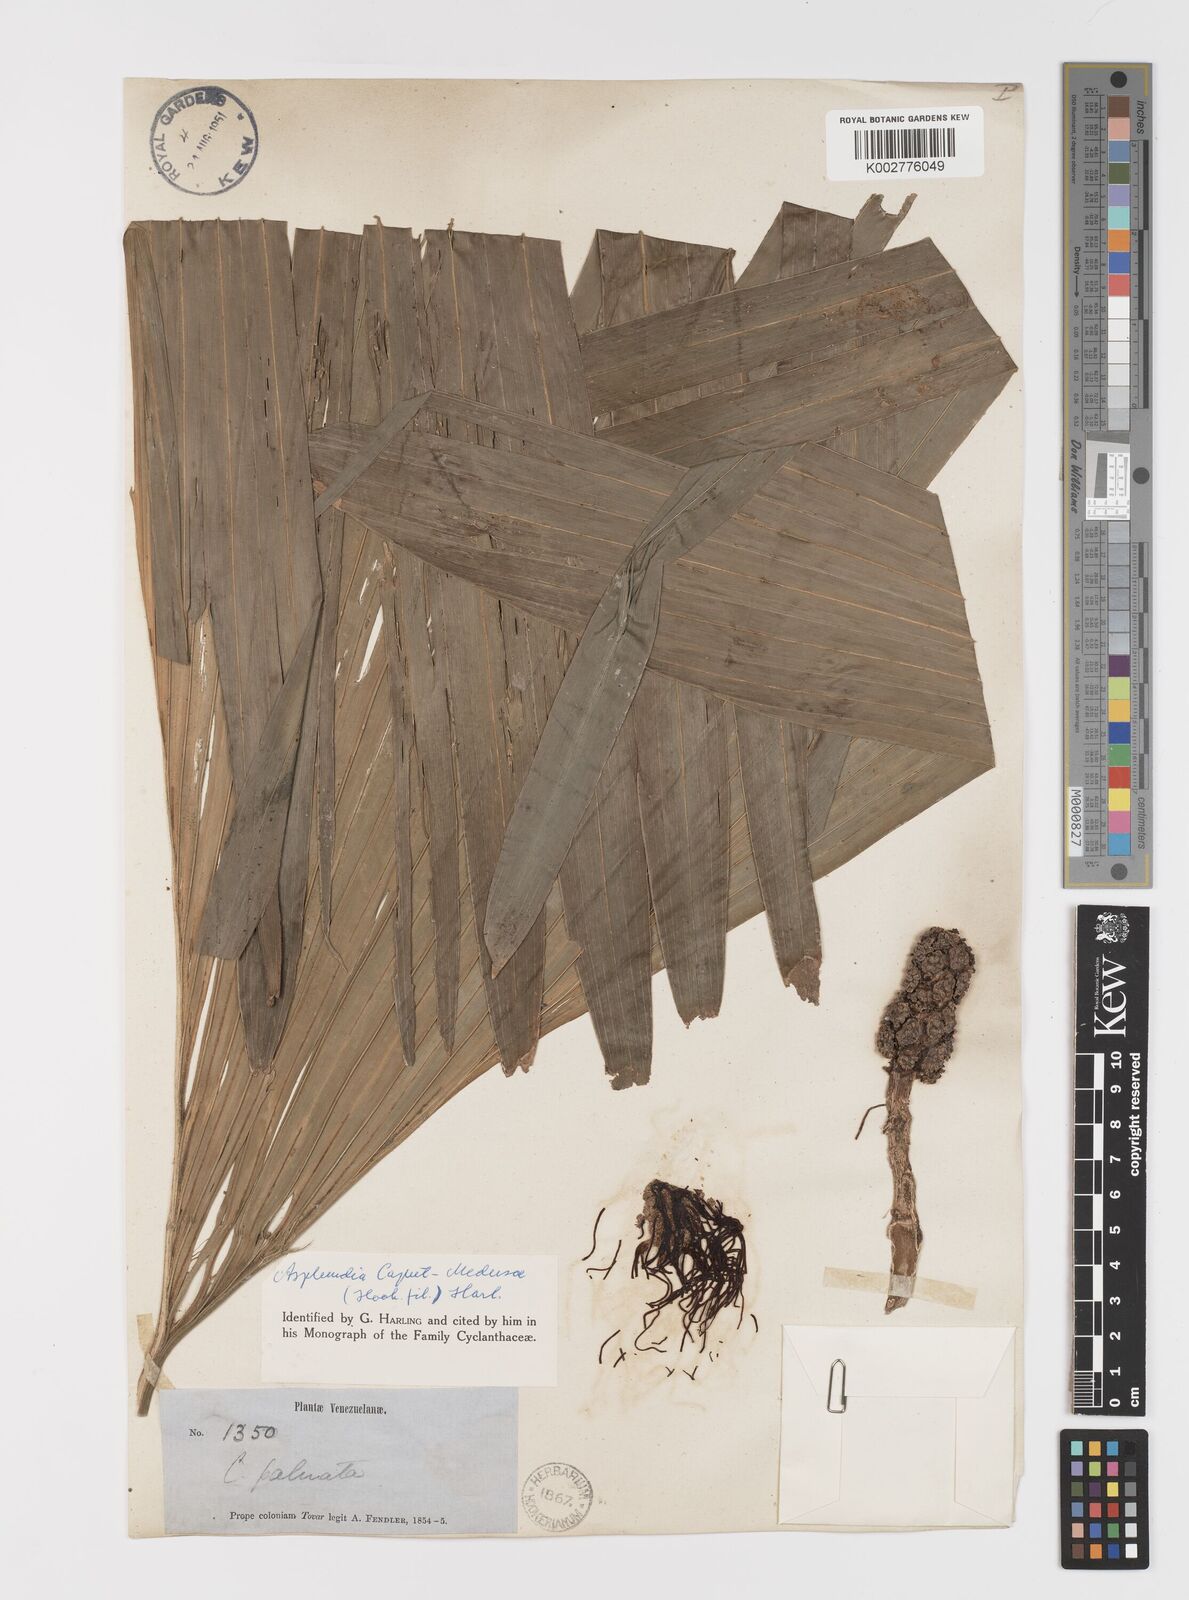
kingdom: Plantae
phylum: Tracheophyta
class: Liliopsida
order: Pandanales
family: Cyclanthaceae
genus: Asplundia
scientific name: Asplundia caput-medusae
